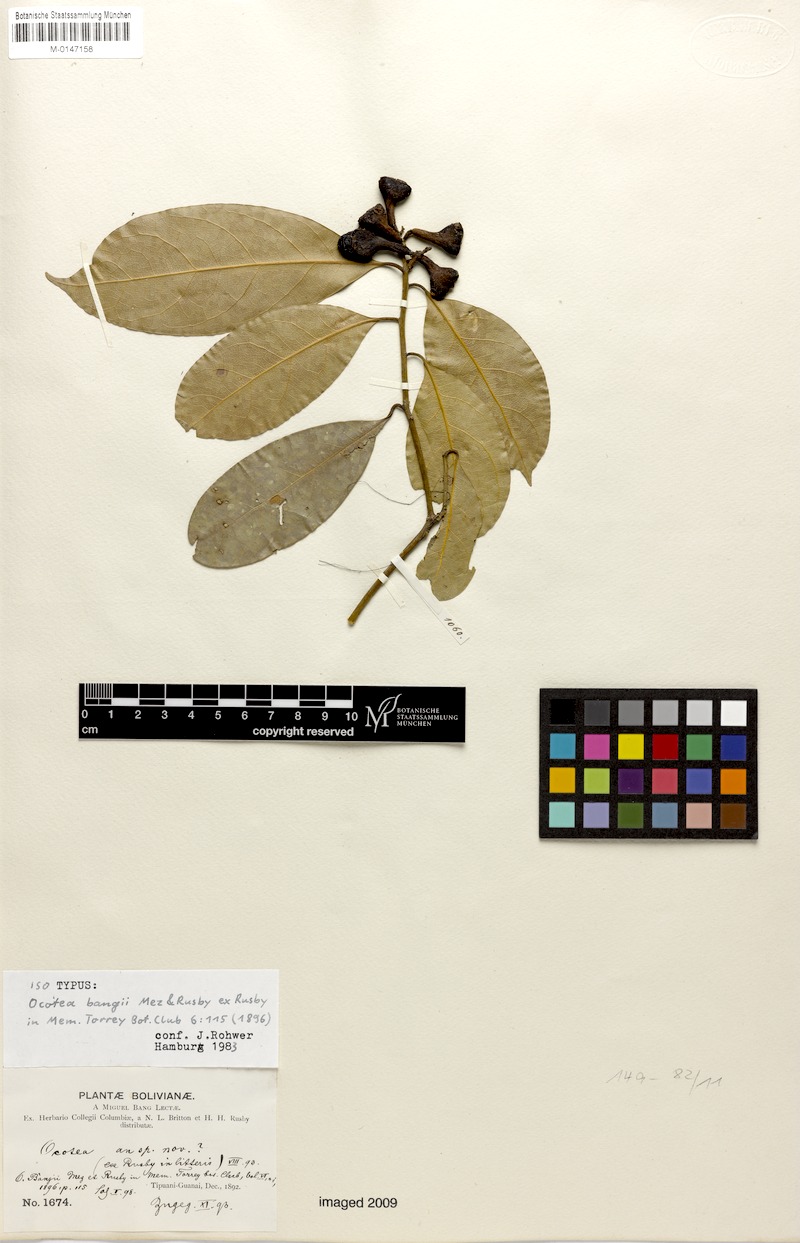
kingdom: Plantae
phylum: Tracheophyta
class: Magnoliopsida
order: Laurales
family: Lauraceae
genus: Ocotea
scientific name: Ocotea bangii
